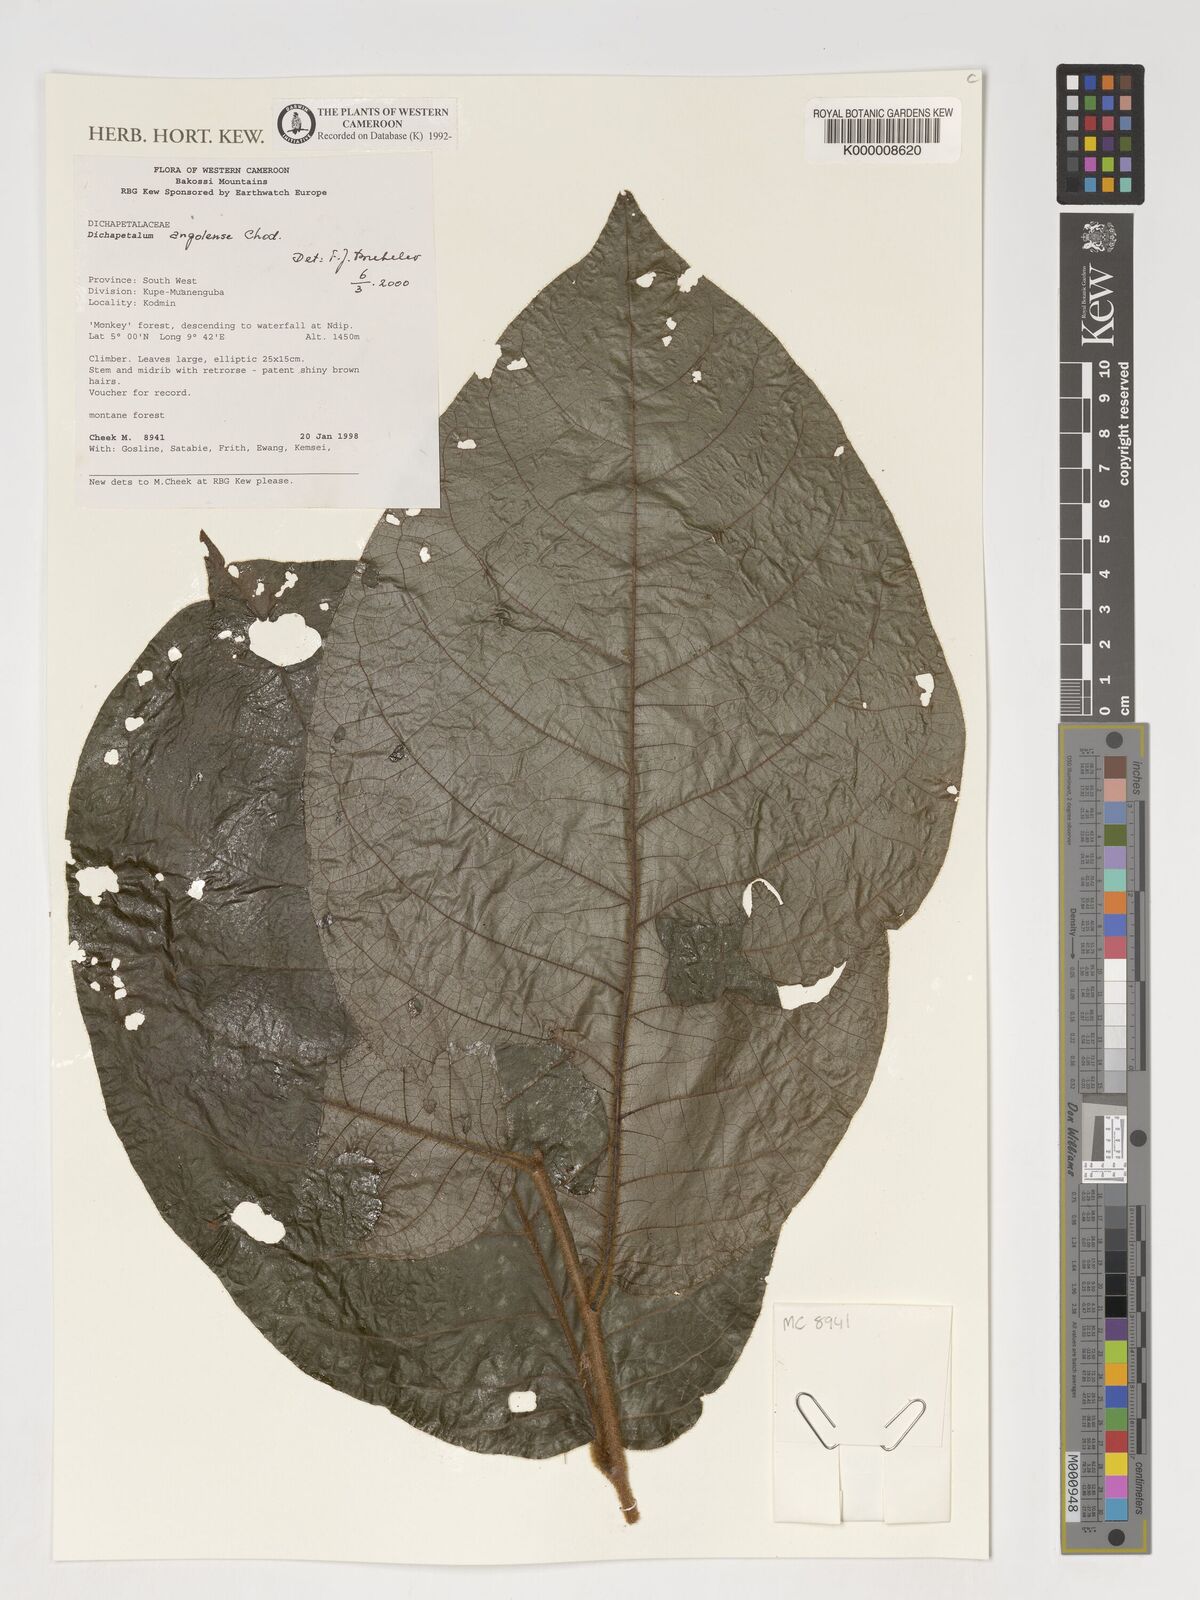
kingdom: Plantae
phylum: Tracheophyta
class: Magnoliopsida
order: Malpighiales
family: Dichapetalaceae
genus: Dichapetalum
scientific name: Dichapetalum angolense
